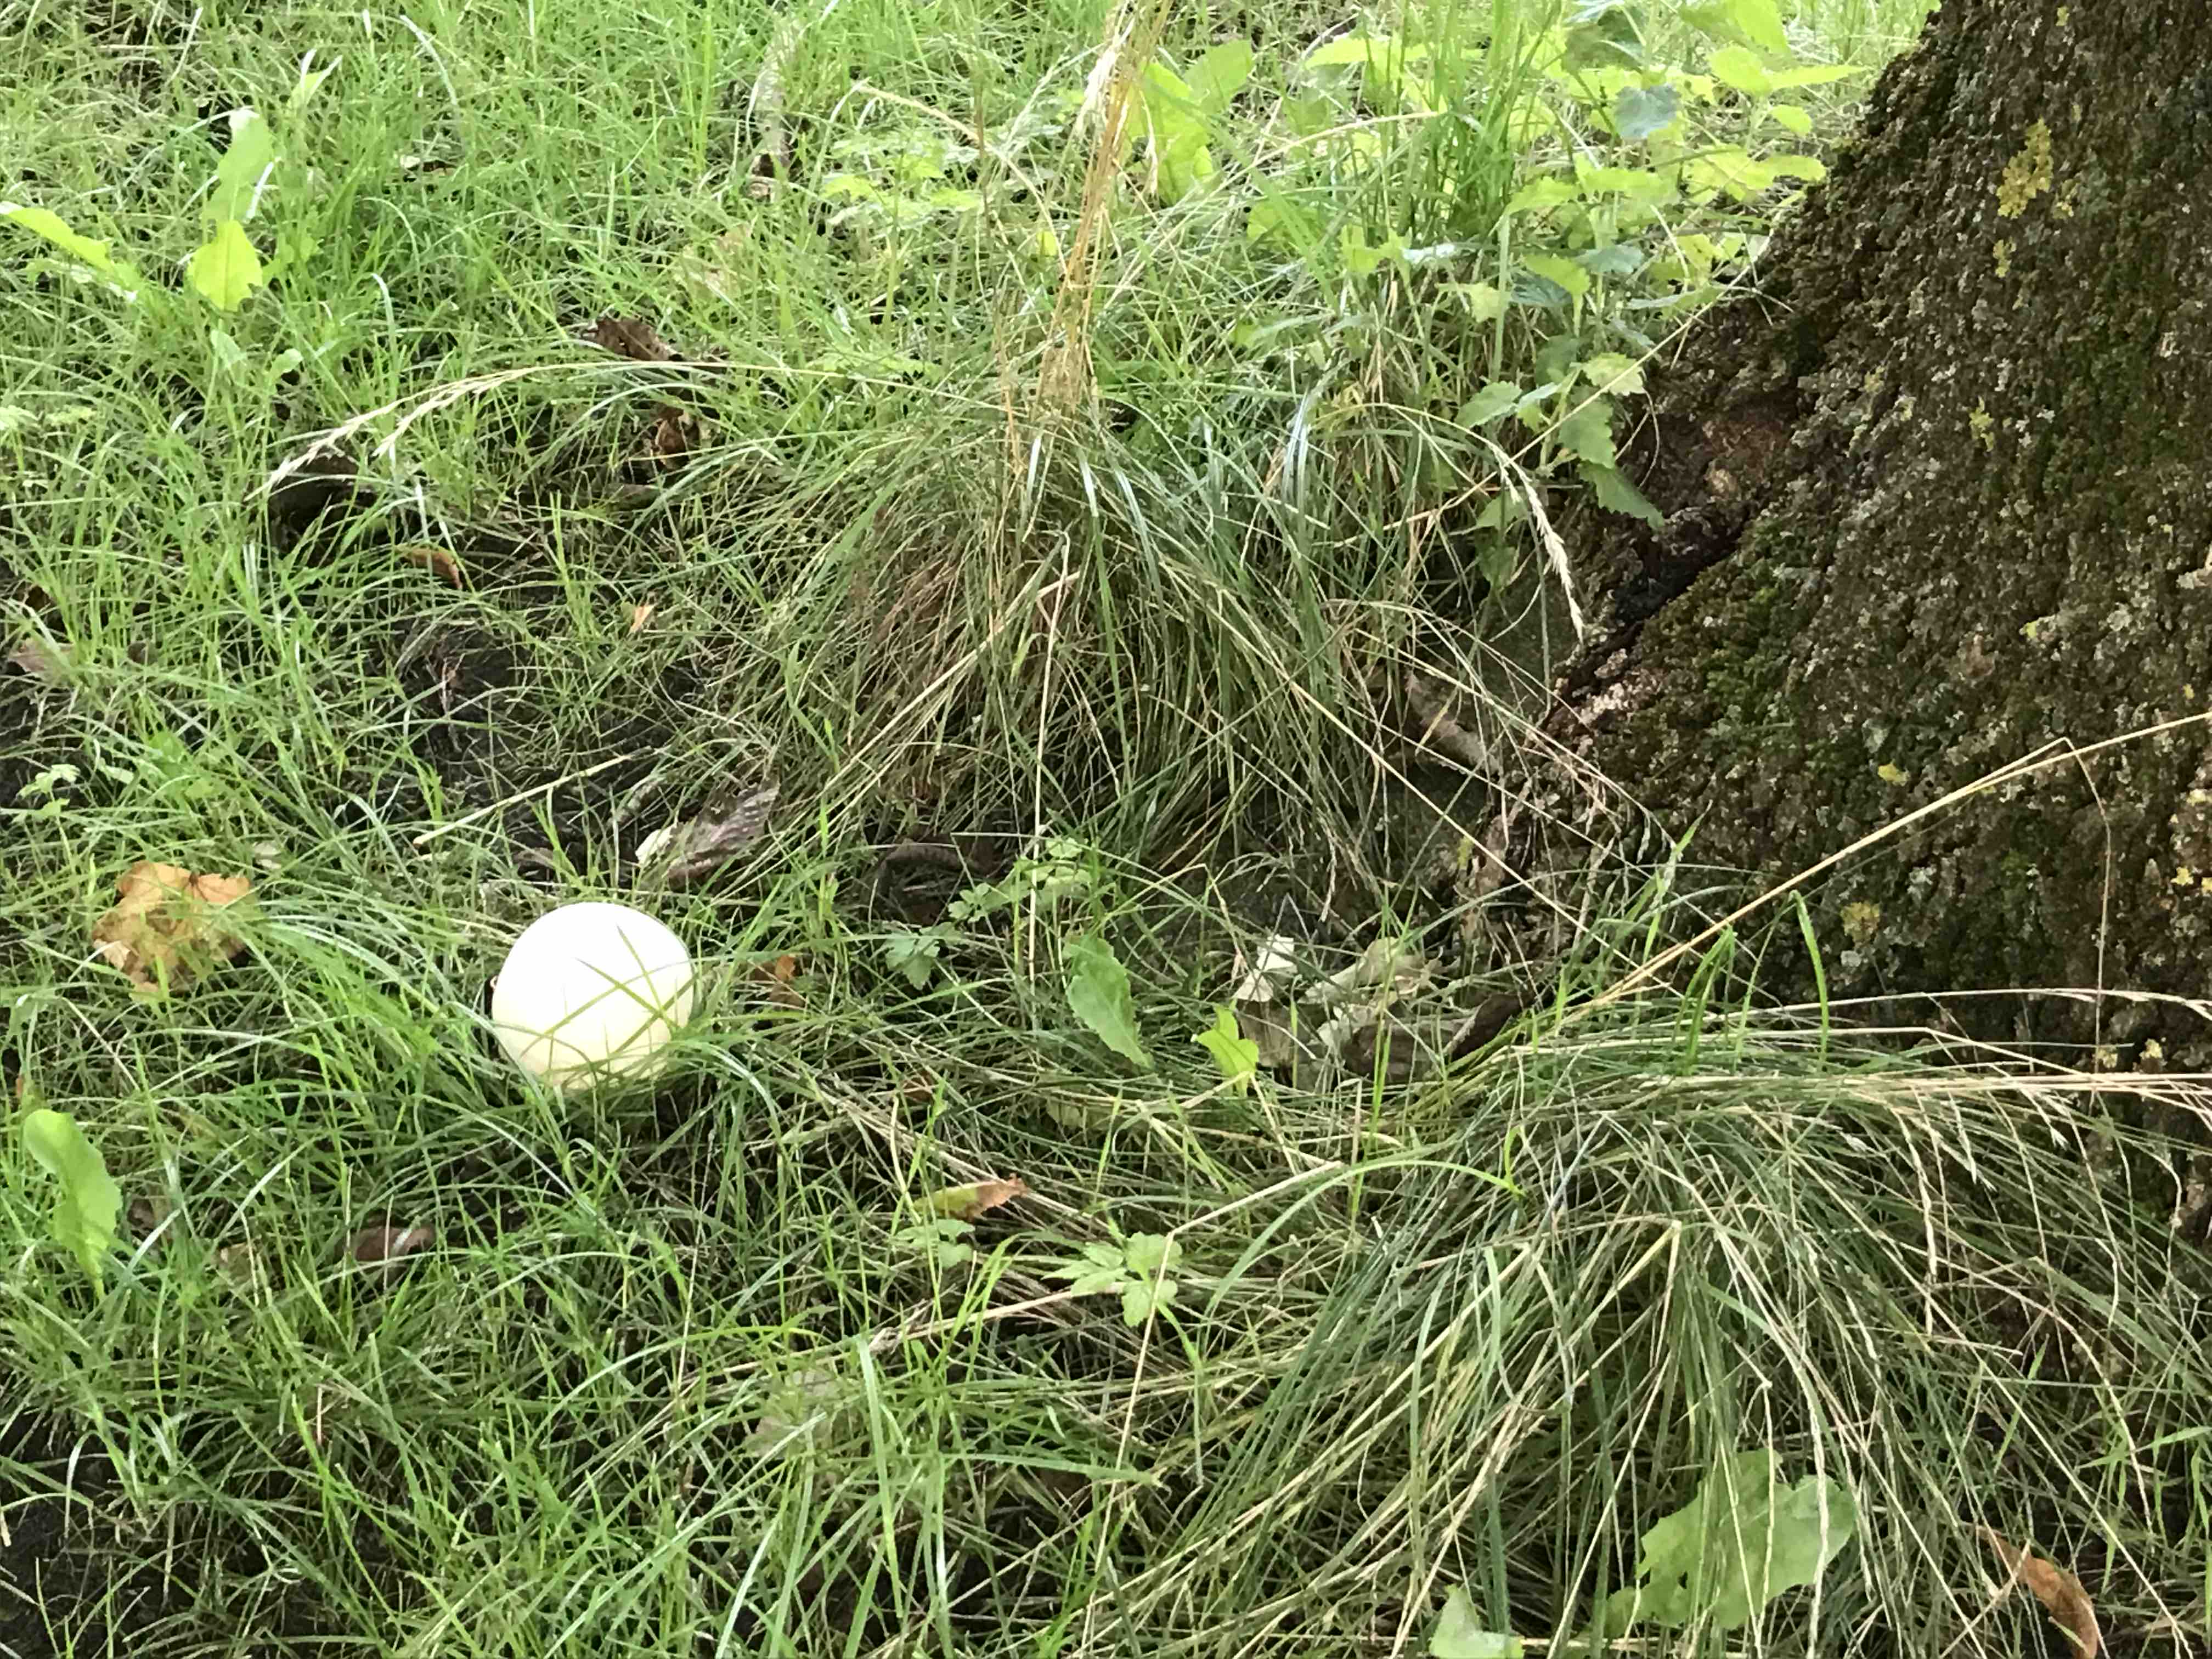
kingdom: Fungi
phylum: Basidiomycota
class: Agaricomycetes
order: Agaricales
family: Lycoperdaceae
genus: Calvatia
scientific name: Calvatia gigantea
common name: kæmpestøvbold
